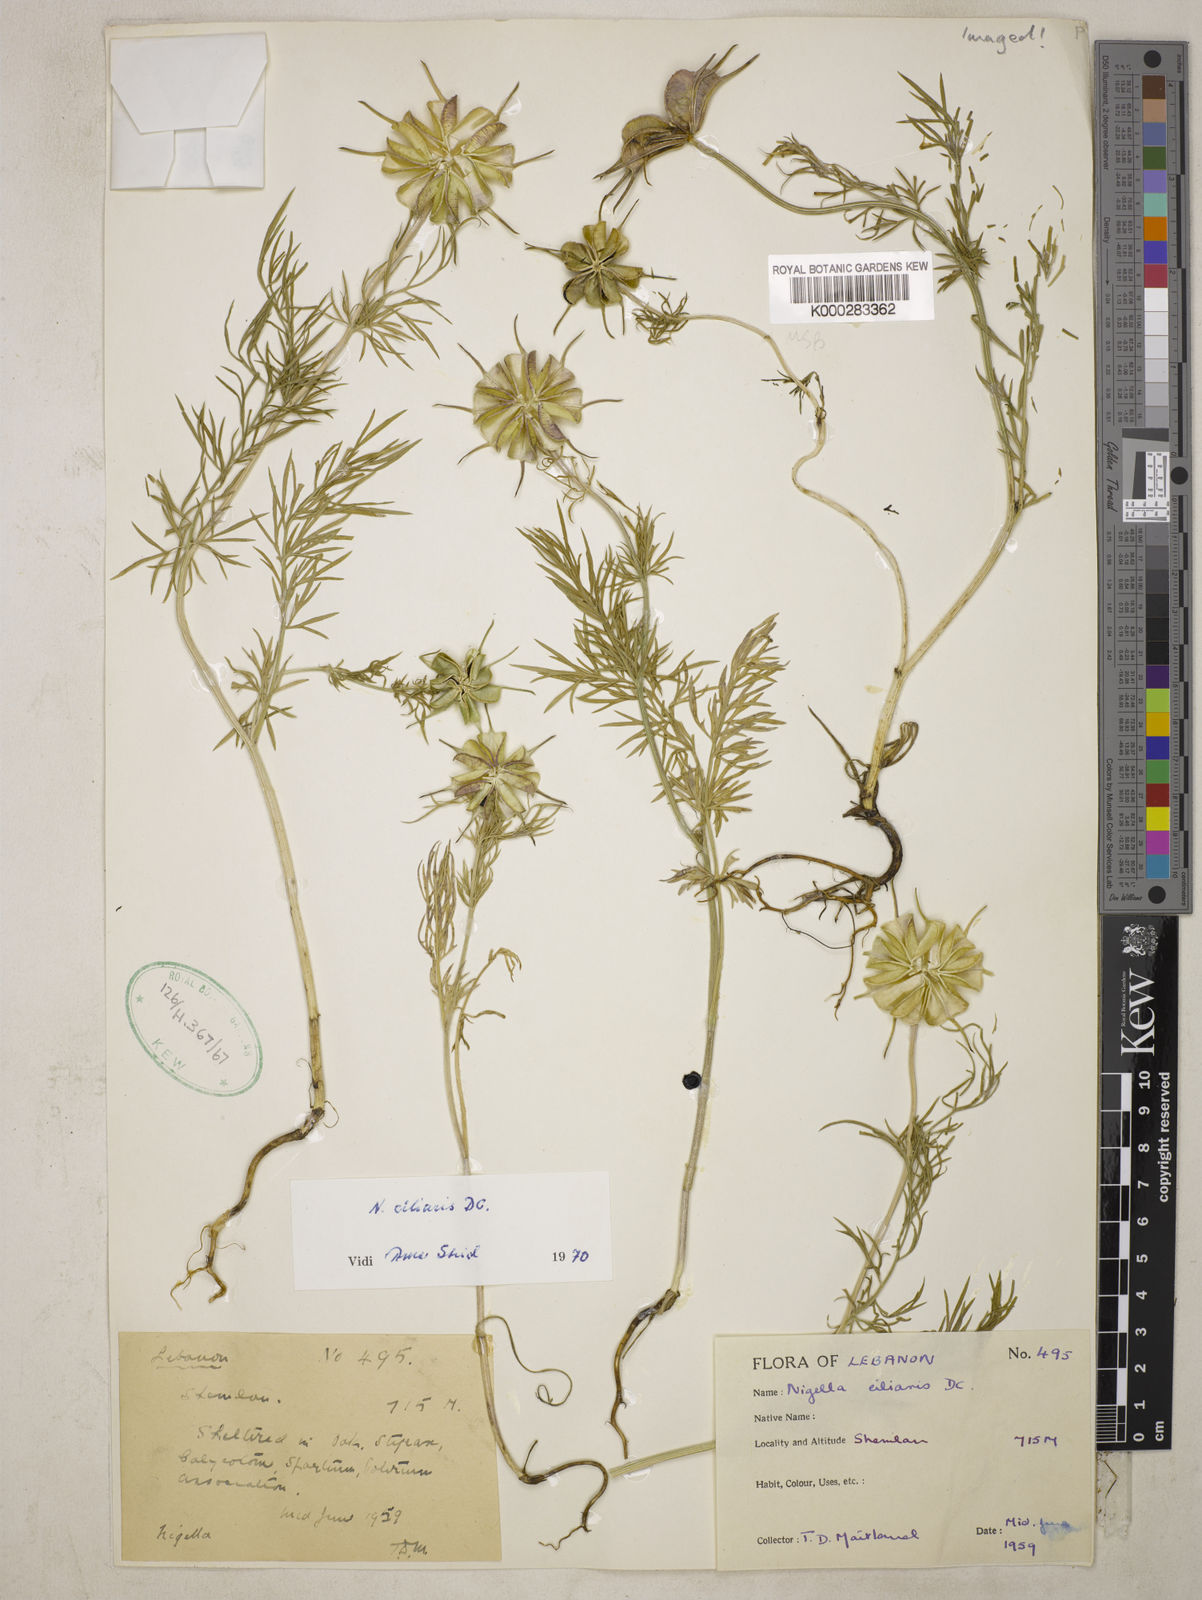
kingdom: Plantae
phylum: Tracheophyta
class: Magnoliopsida
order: Ranunculales
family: Ranunculaceae
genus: Nigella
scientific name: Nigella ciliaris
